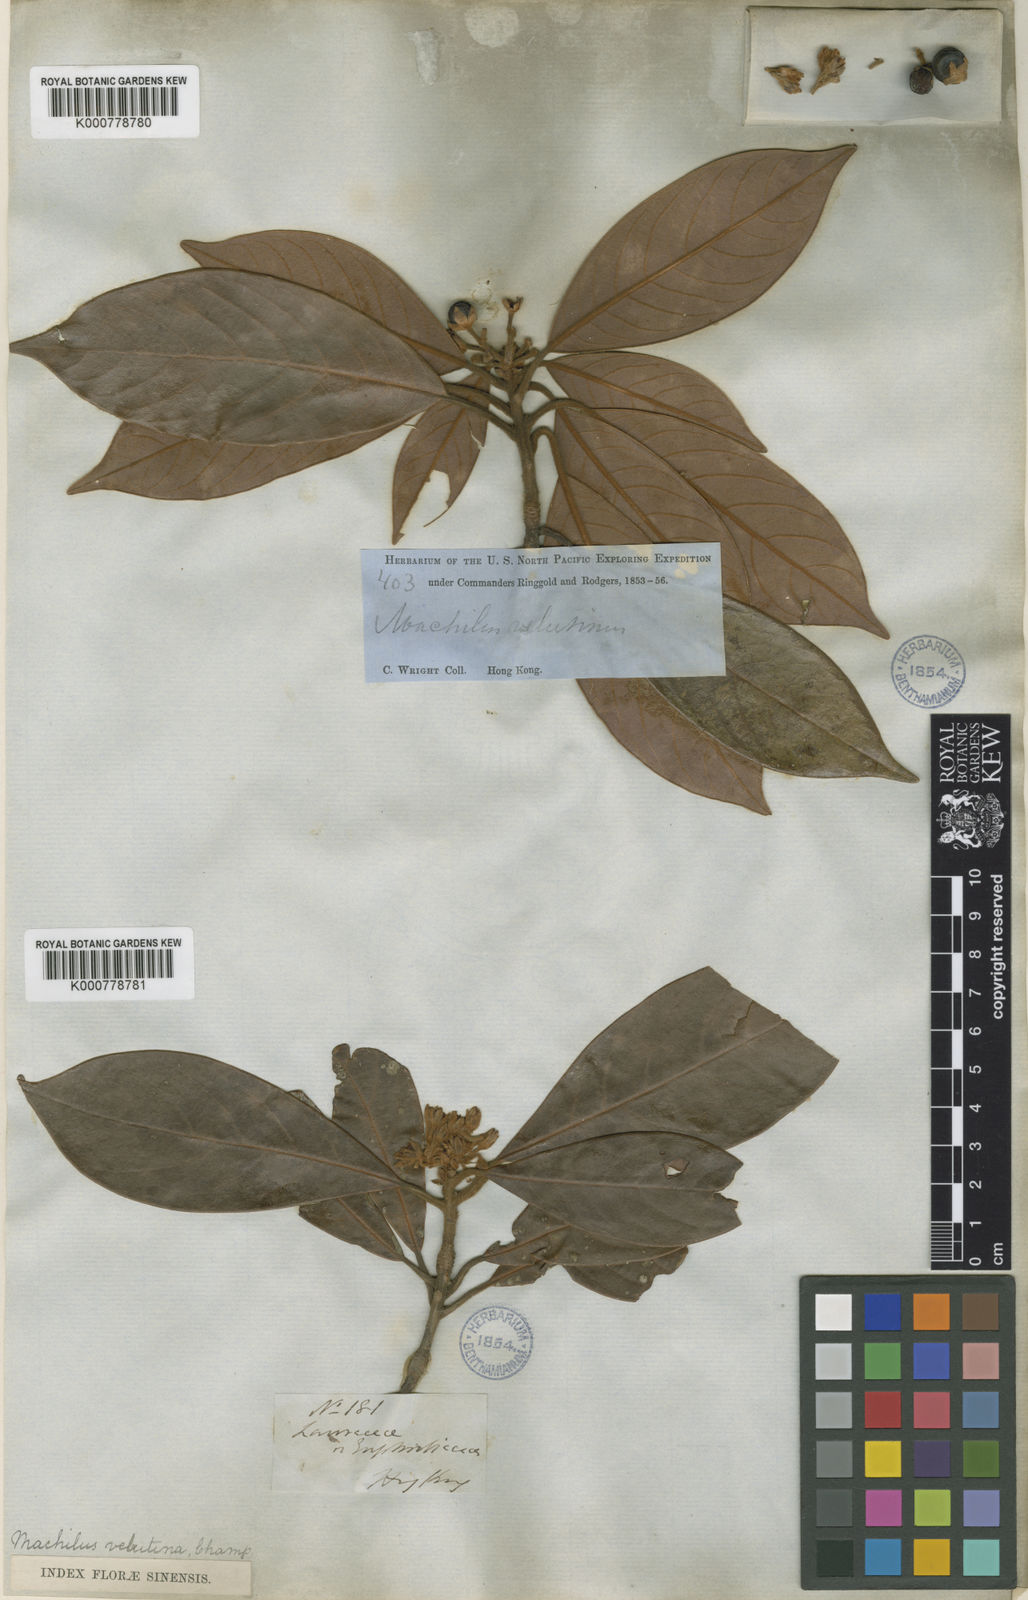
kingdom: Plantae
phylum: Tracheophyta
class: Magnoliopsida
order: Laurales
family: Lauraceae
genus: Actinodaphne
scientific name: Actinodaphne pedunculata
